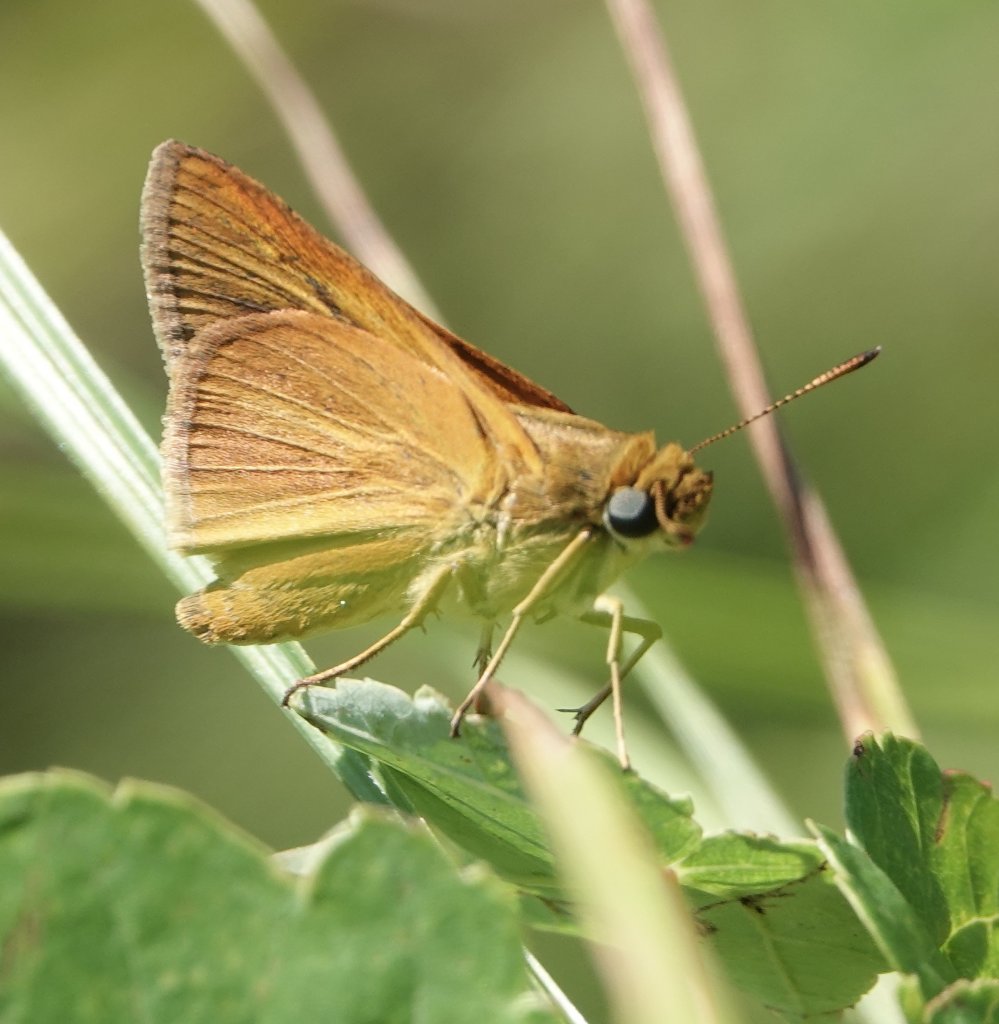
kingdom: Animalia
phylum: Arthropoda
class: Insecta
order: Lepidoptera
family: Hesperiidae
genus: Euphyes
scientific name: Euphyes dion
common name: Dion Skipper
